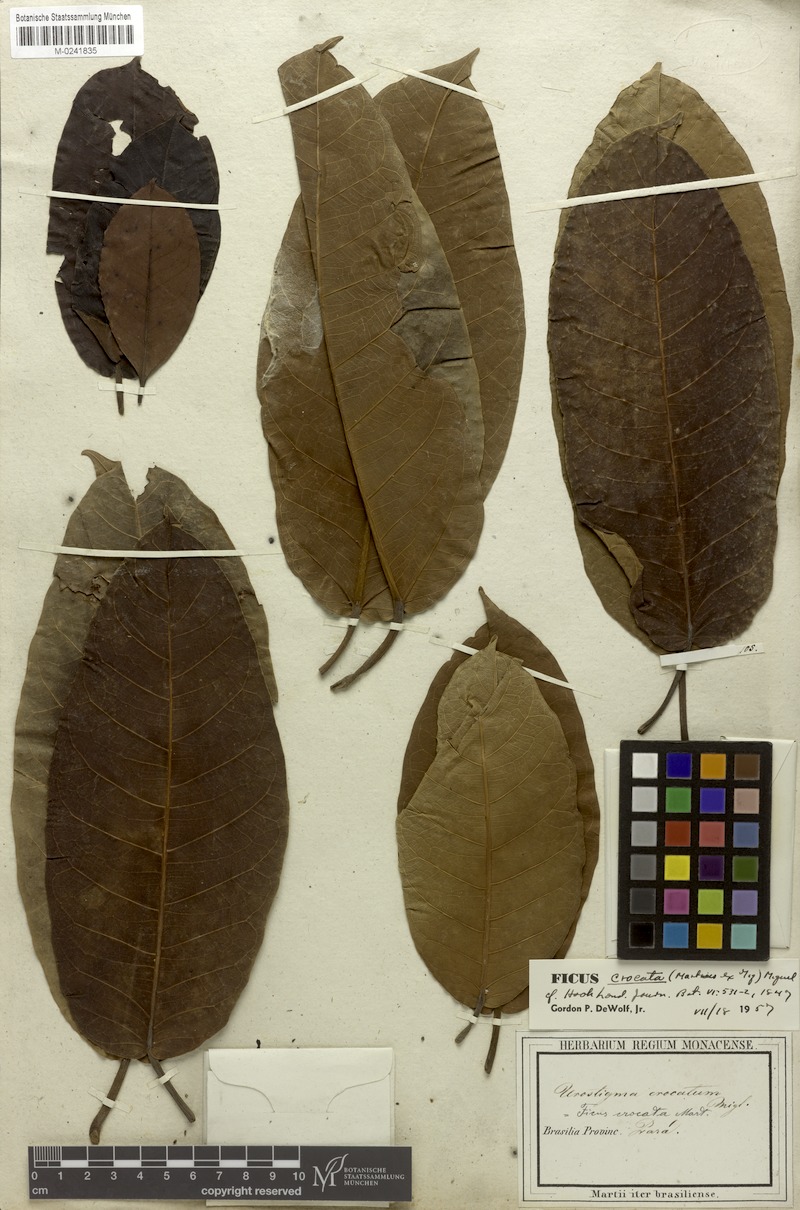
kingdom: Plantae
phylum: Tracheophyta
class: Magnoliopsida
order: Rosales
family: Moraceae
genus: Ficus
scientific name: Ficus crocata
